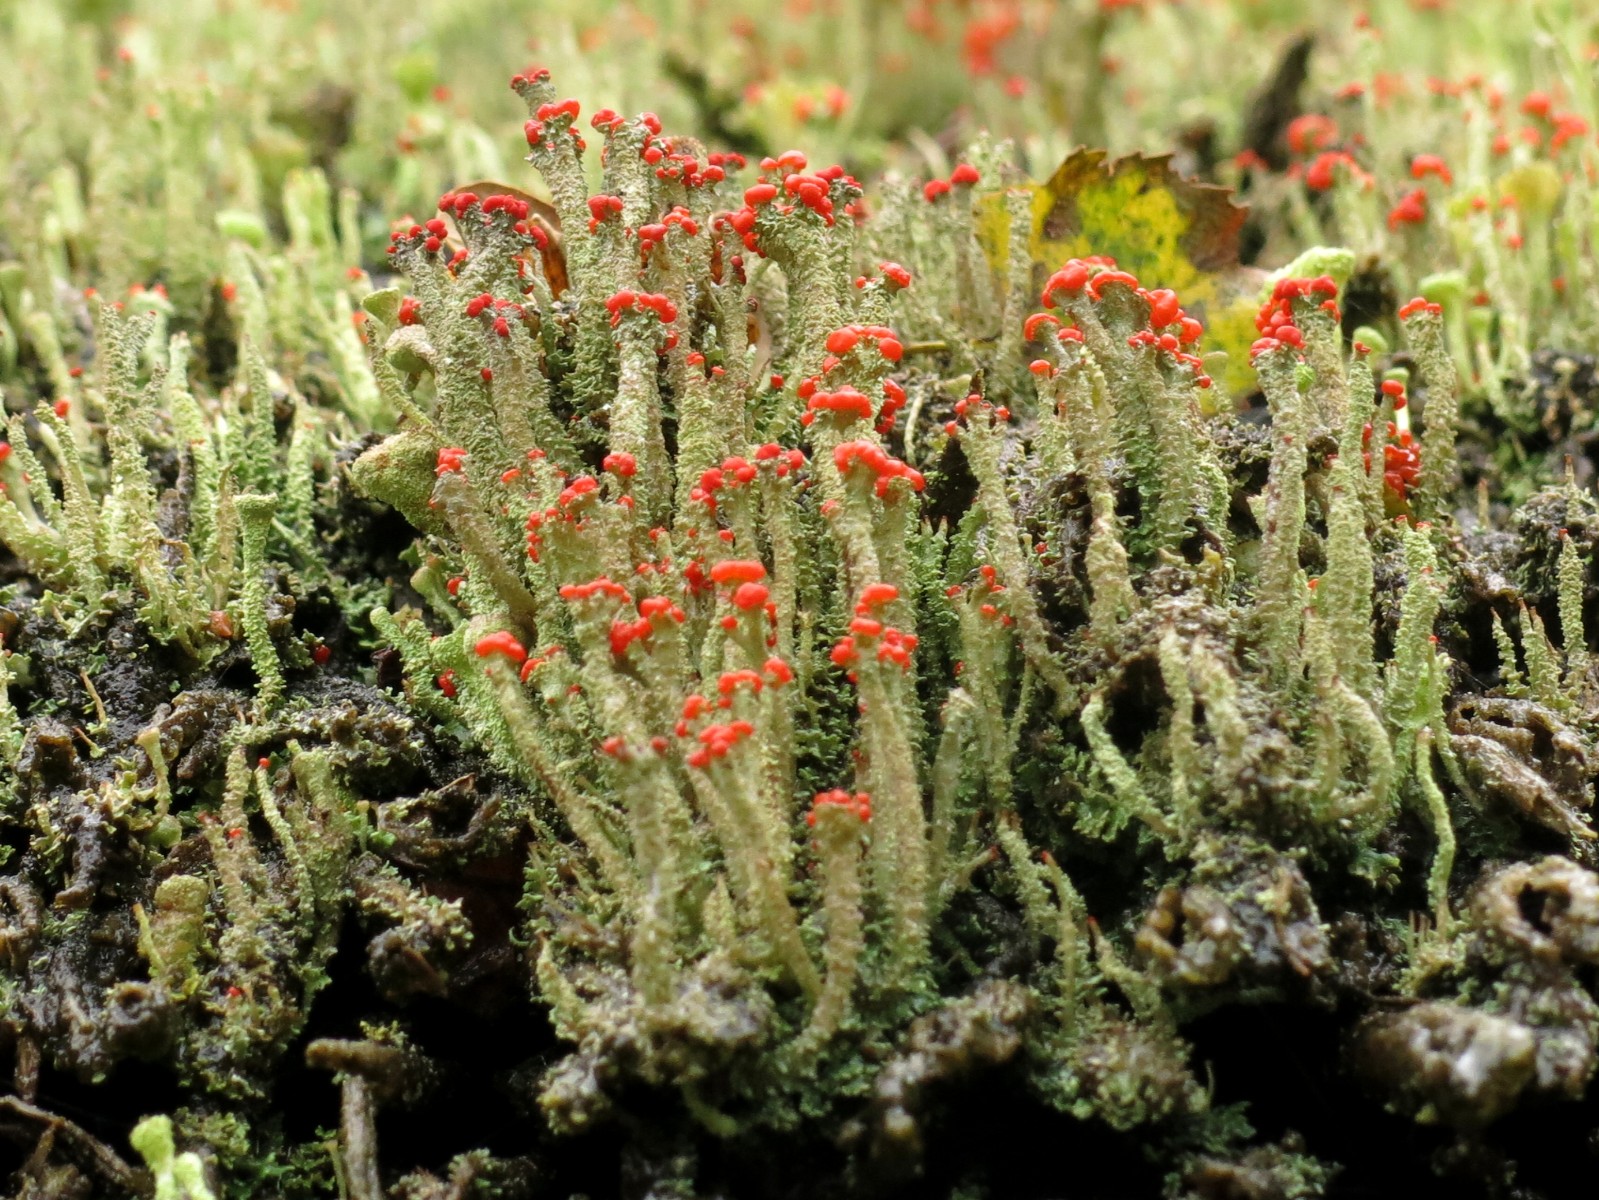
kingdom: Fungi
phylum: Ascomycota
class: Lecanoromycetes
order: Lecanorales
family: Cladoniaceae
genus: Cladonia
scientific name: Cladonia floerkeana
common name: lakrød bægerlav
